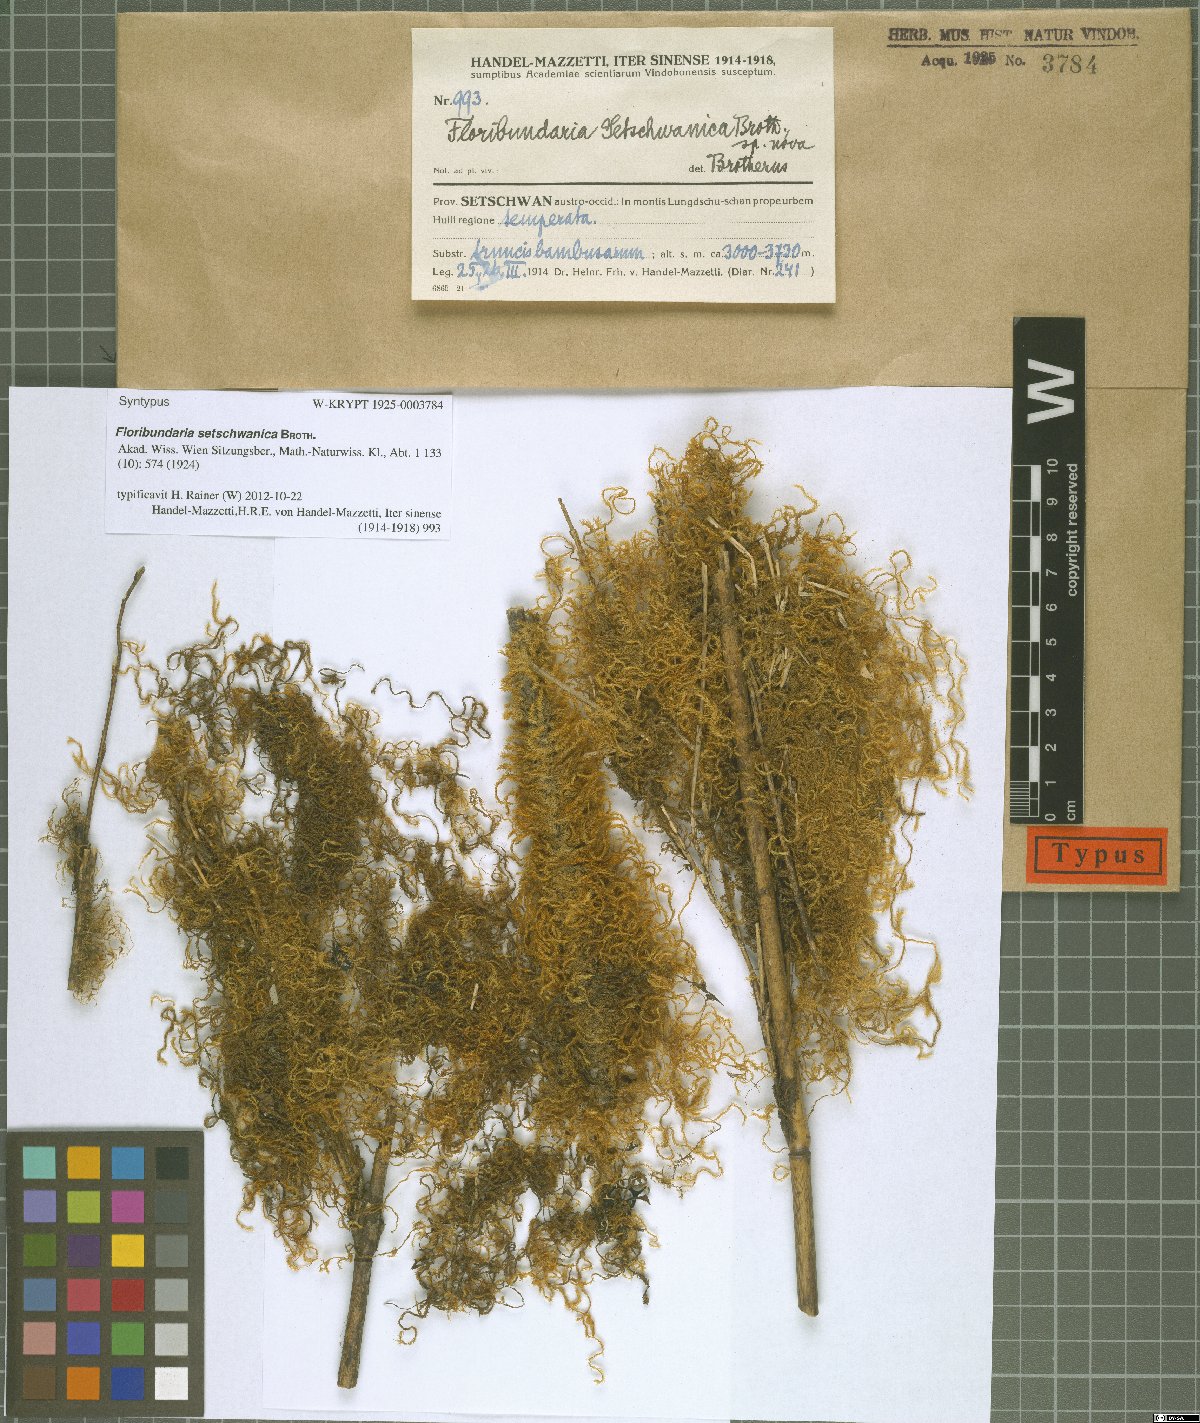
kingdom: Plantae
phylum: Bryophyta
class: Bryopsida
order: Hypnales
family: Meteoriaceae
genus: Floribundaria
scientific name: Floribundaria setschwanica
